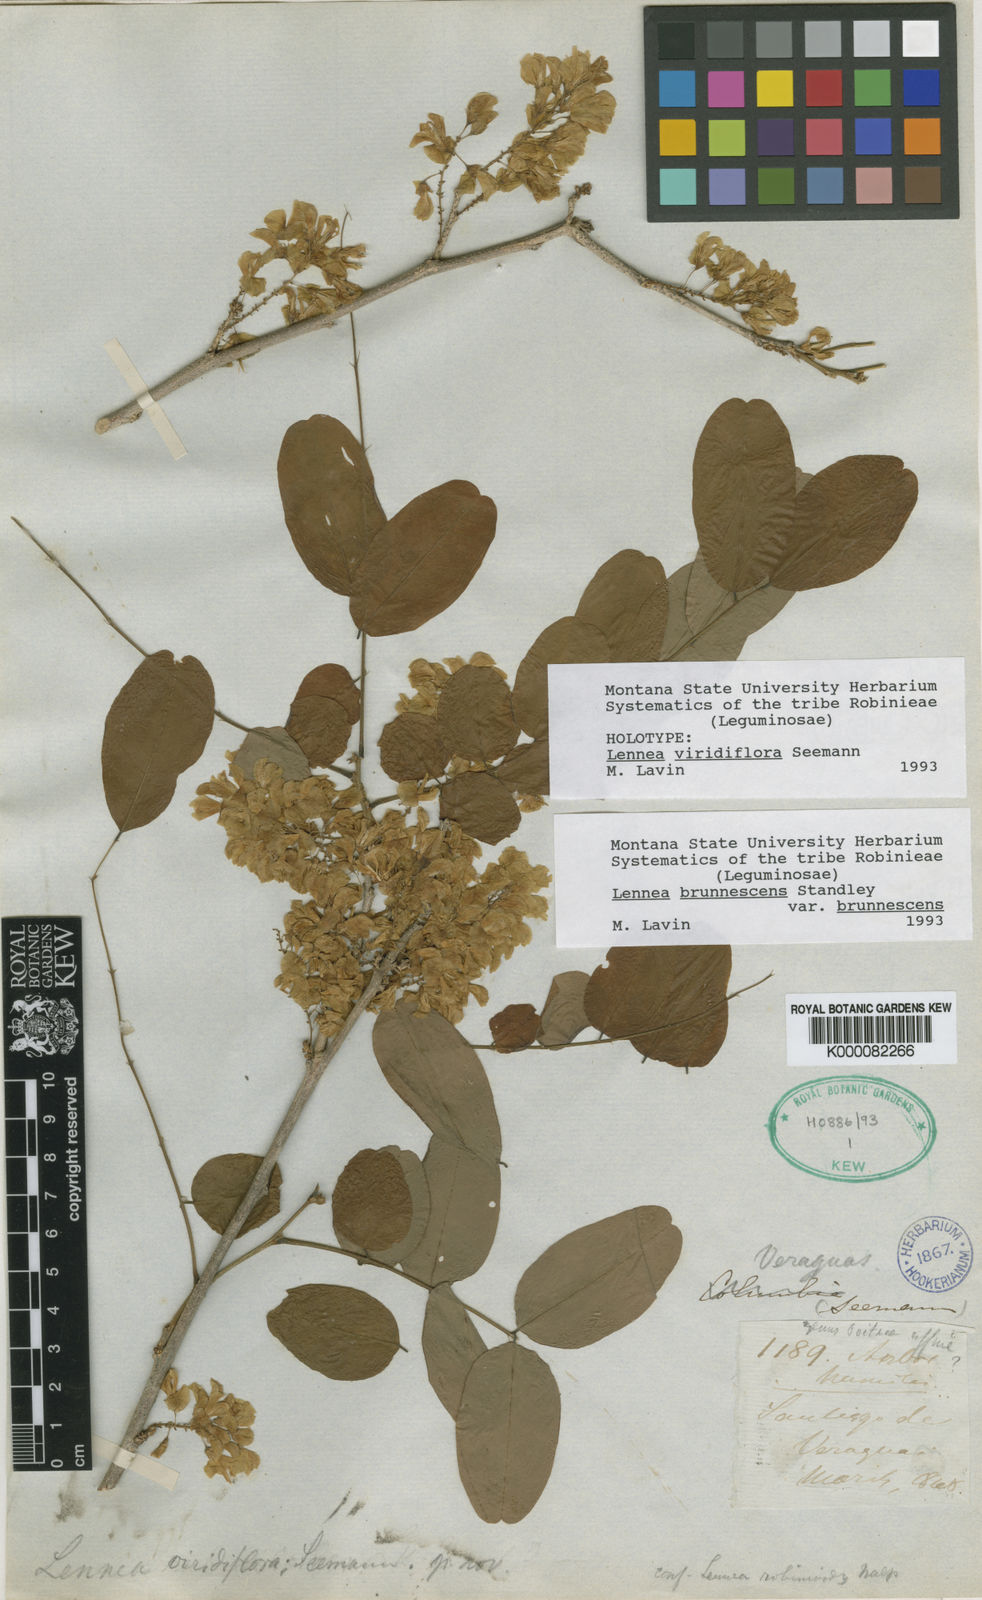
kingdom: Plantae
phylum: Tracheophyta
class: Magnoliopsida
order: Fabales
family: Fabaceae
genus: Lennea
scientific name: Lennea viridiflora
